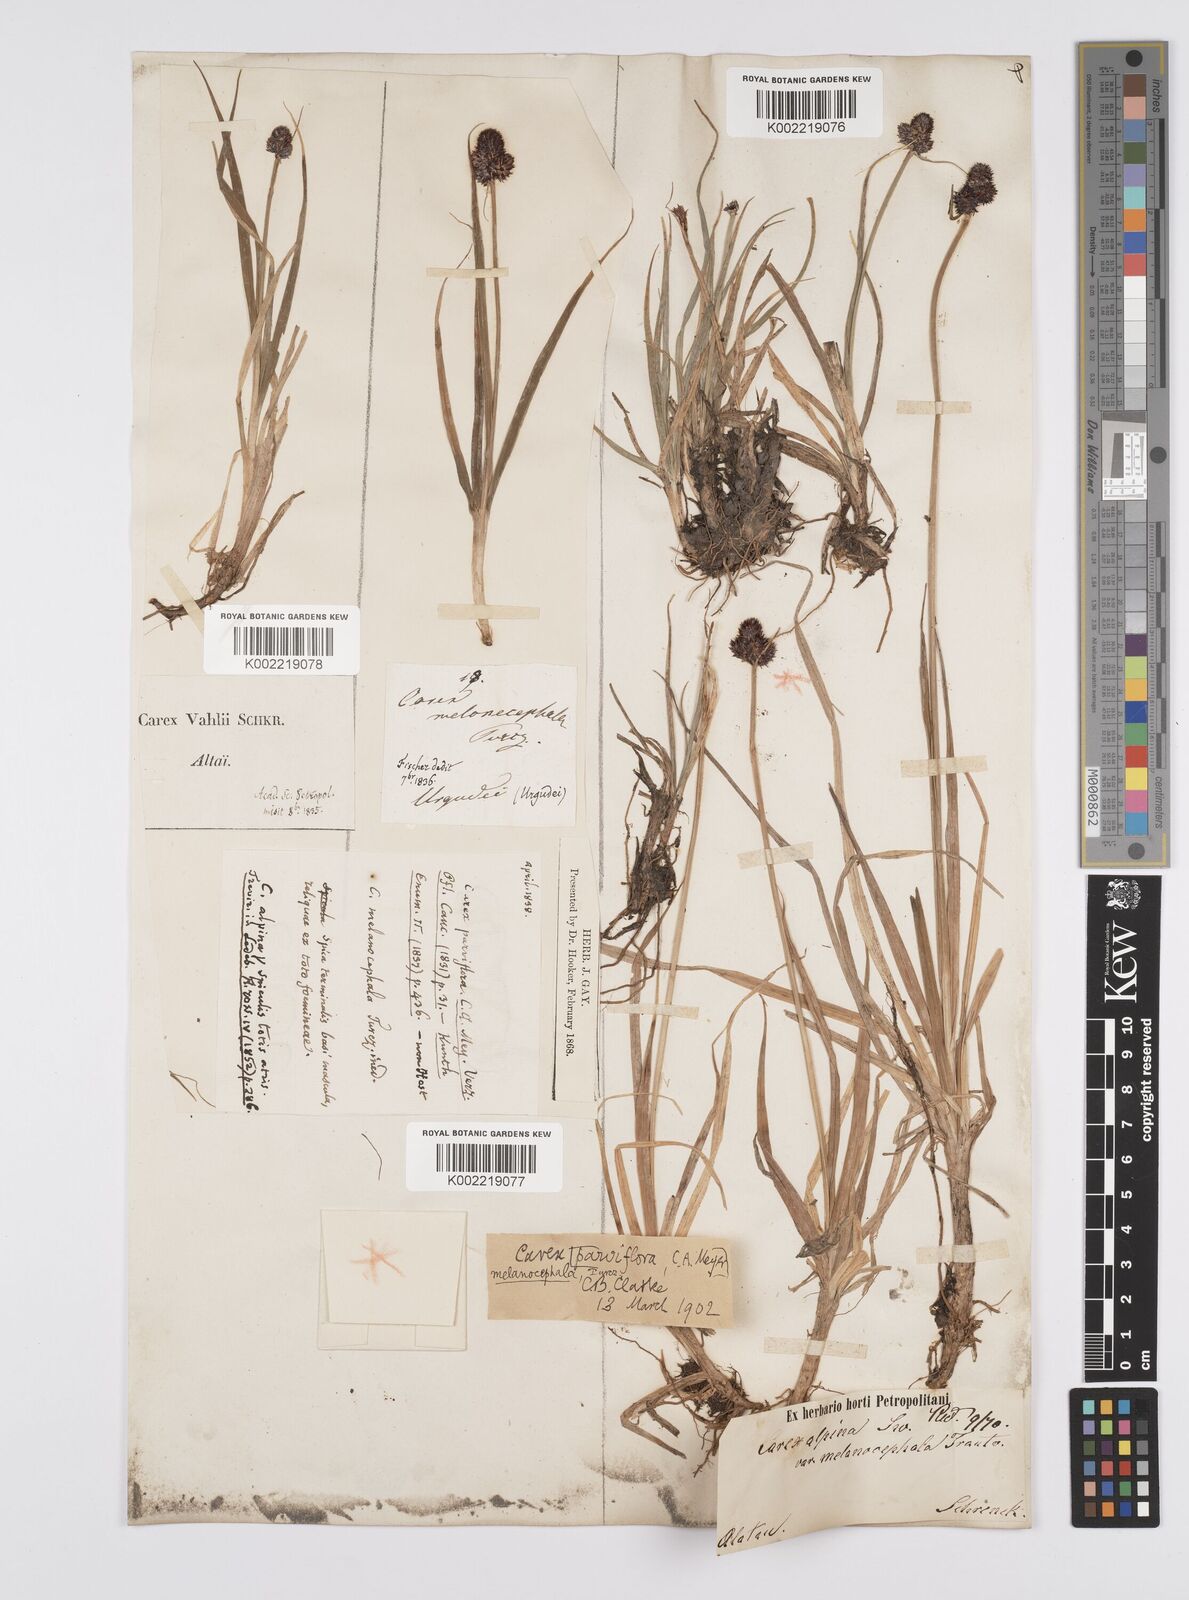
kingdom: Plantae
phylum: Tracheophyta
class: Liliopsida
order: Poales
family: Cyperaceae
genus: Carex
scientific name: Carex oligantha
